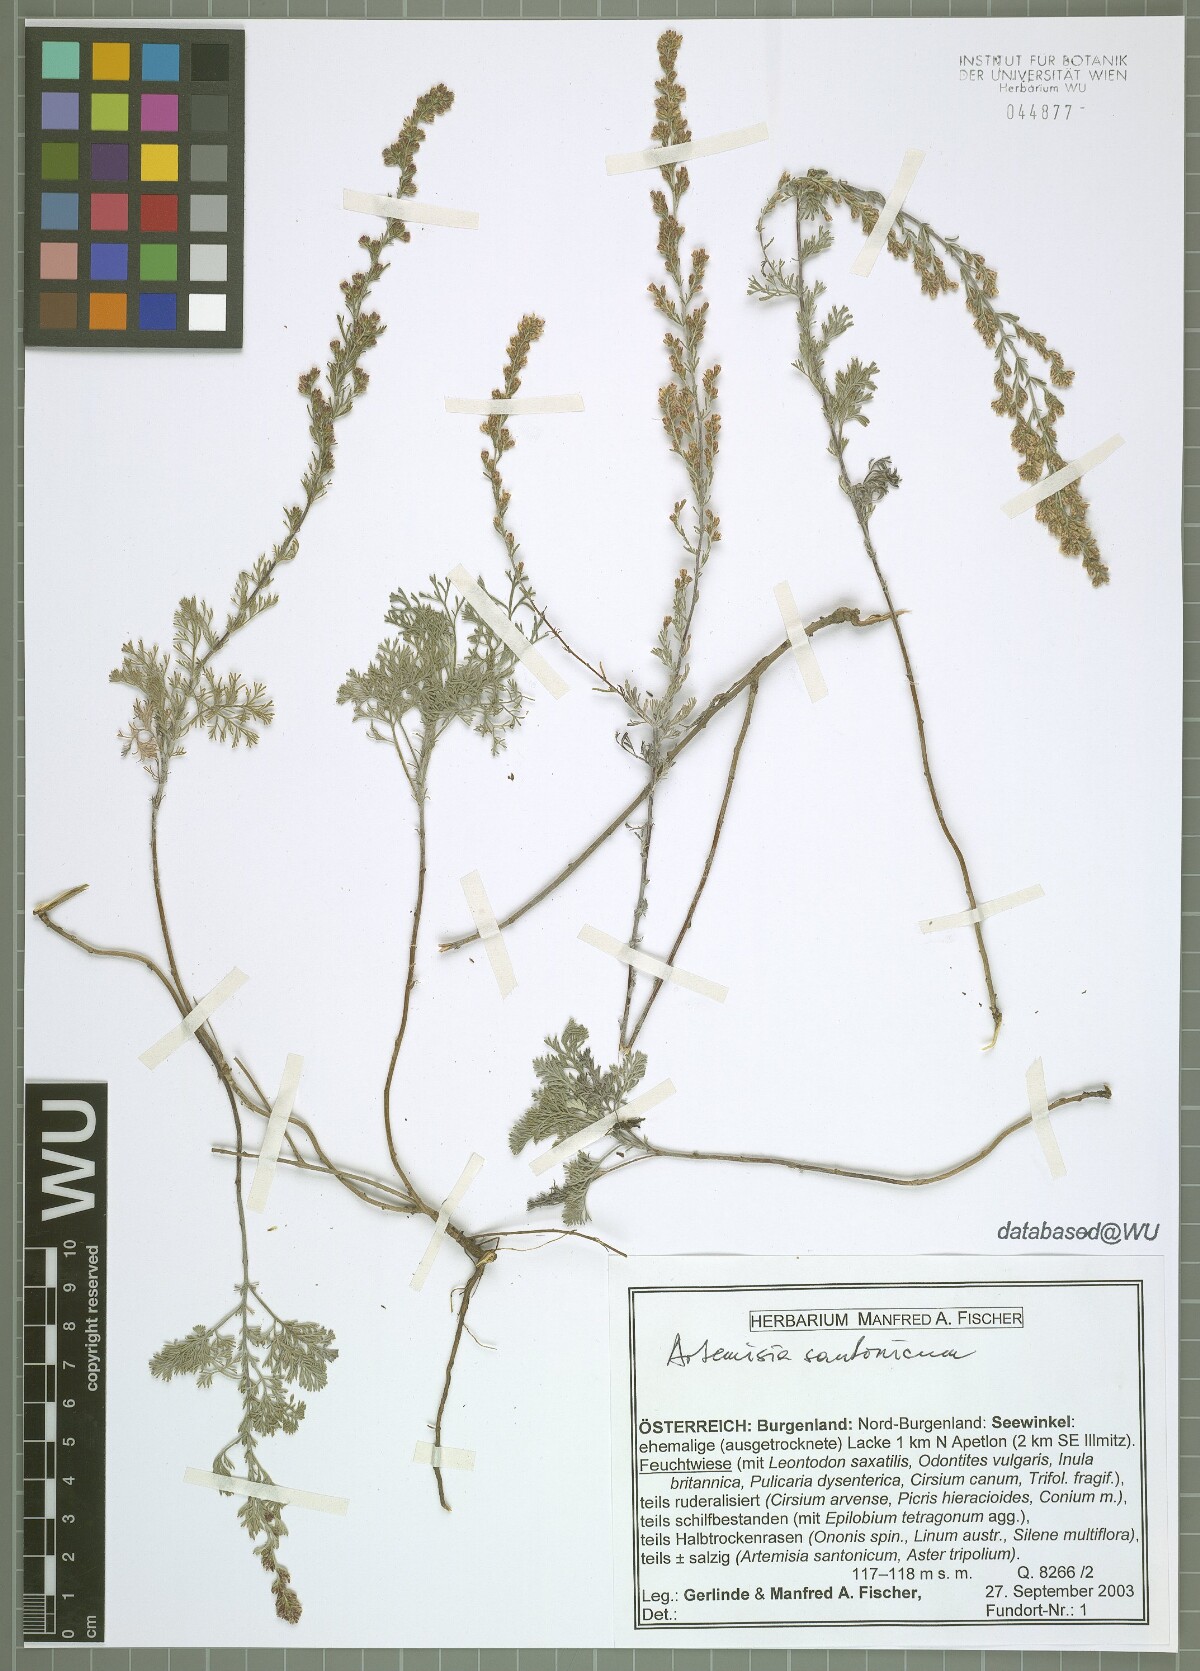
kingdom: Plantae
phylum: Tracheophyta
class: Magnoliopsida
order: Asterales
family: Asteraceae
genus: Artemisia
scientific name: Artemisia santonicum
